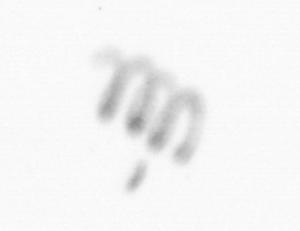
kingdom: Chromista
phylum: Ochrophyta
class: Bacillariophyceae
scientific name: Bacillariophyceae
